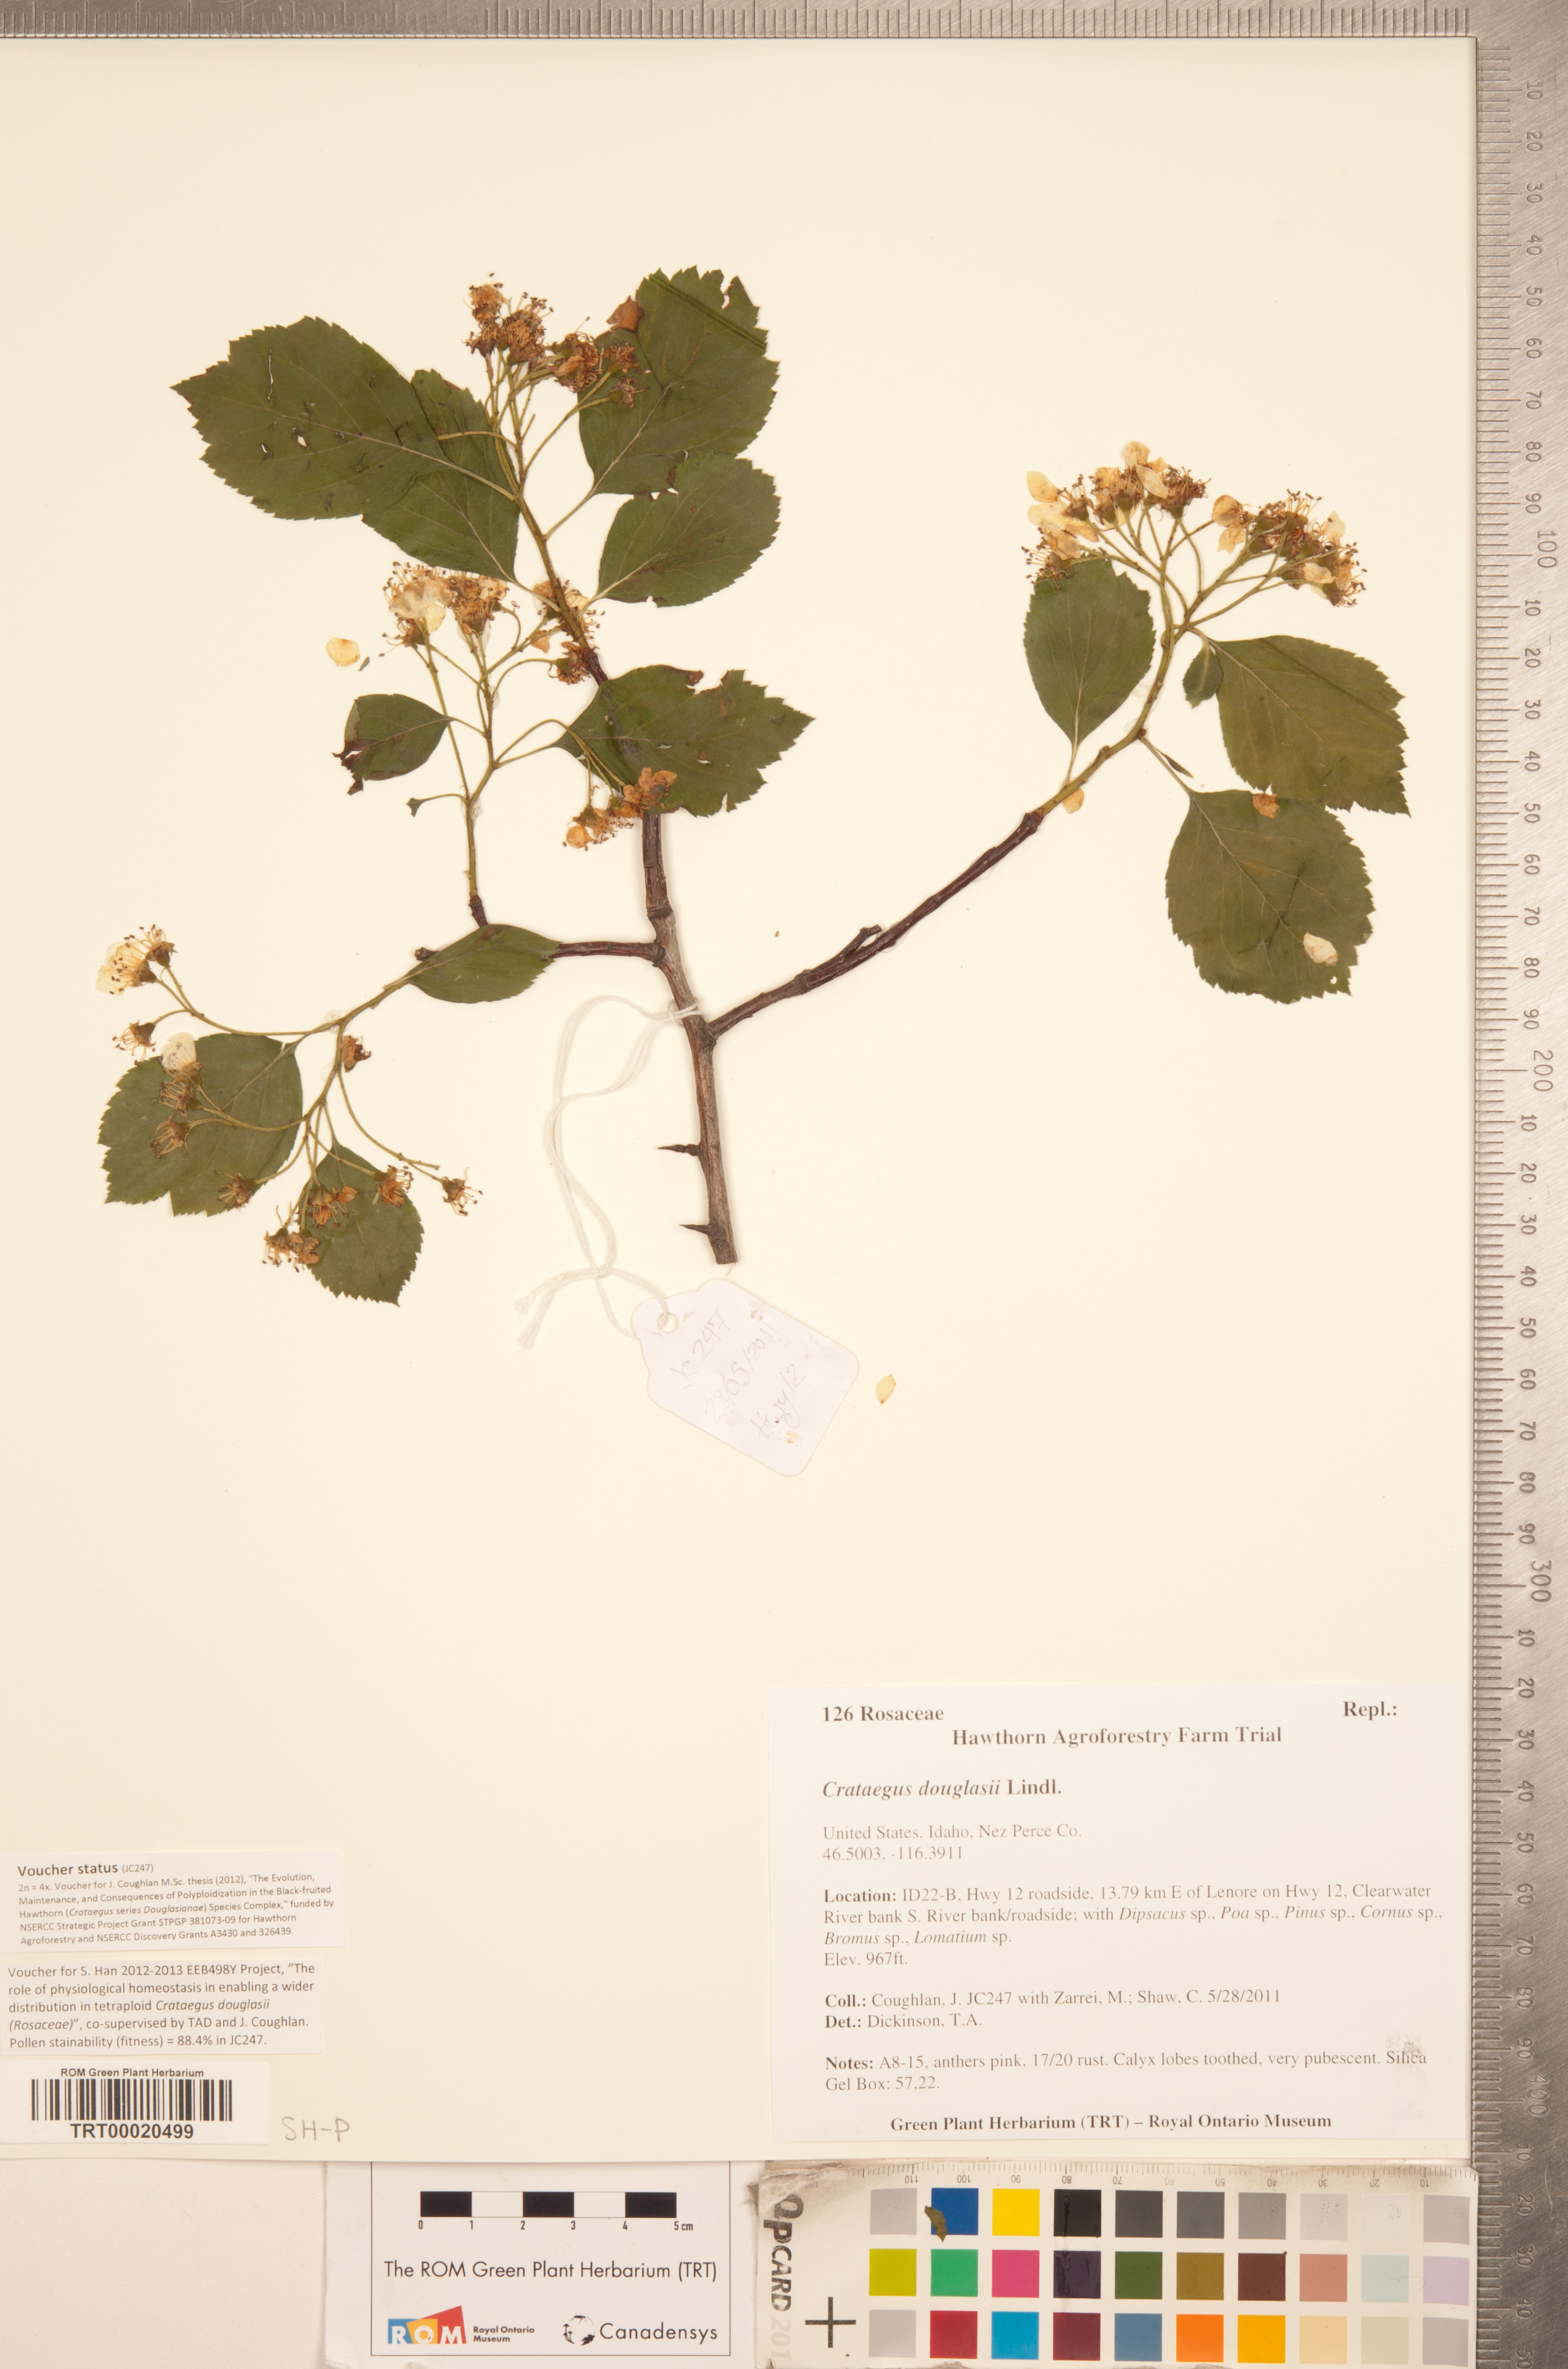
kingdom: Plantae
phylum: Tracheophyta
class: Magnoliopsida
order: Rosales
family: Rosaceae
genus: Crataegus
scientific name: Crataegus douglasii
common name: Black hawthorn
